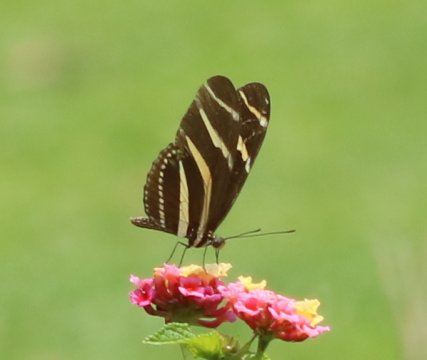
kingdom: Animalia
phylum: Arthropoda
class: Insecta
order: Lepidoptera
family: Nymphalidae
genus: Heliconius
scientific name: Heliconius charithonia
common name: Zebra Longwing
